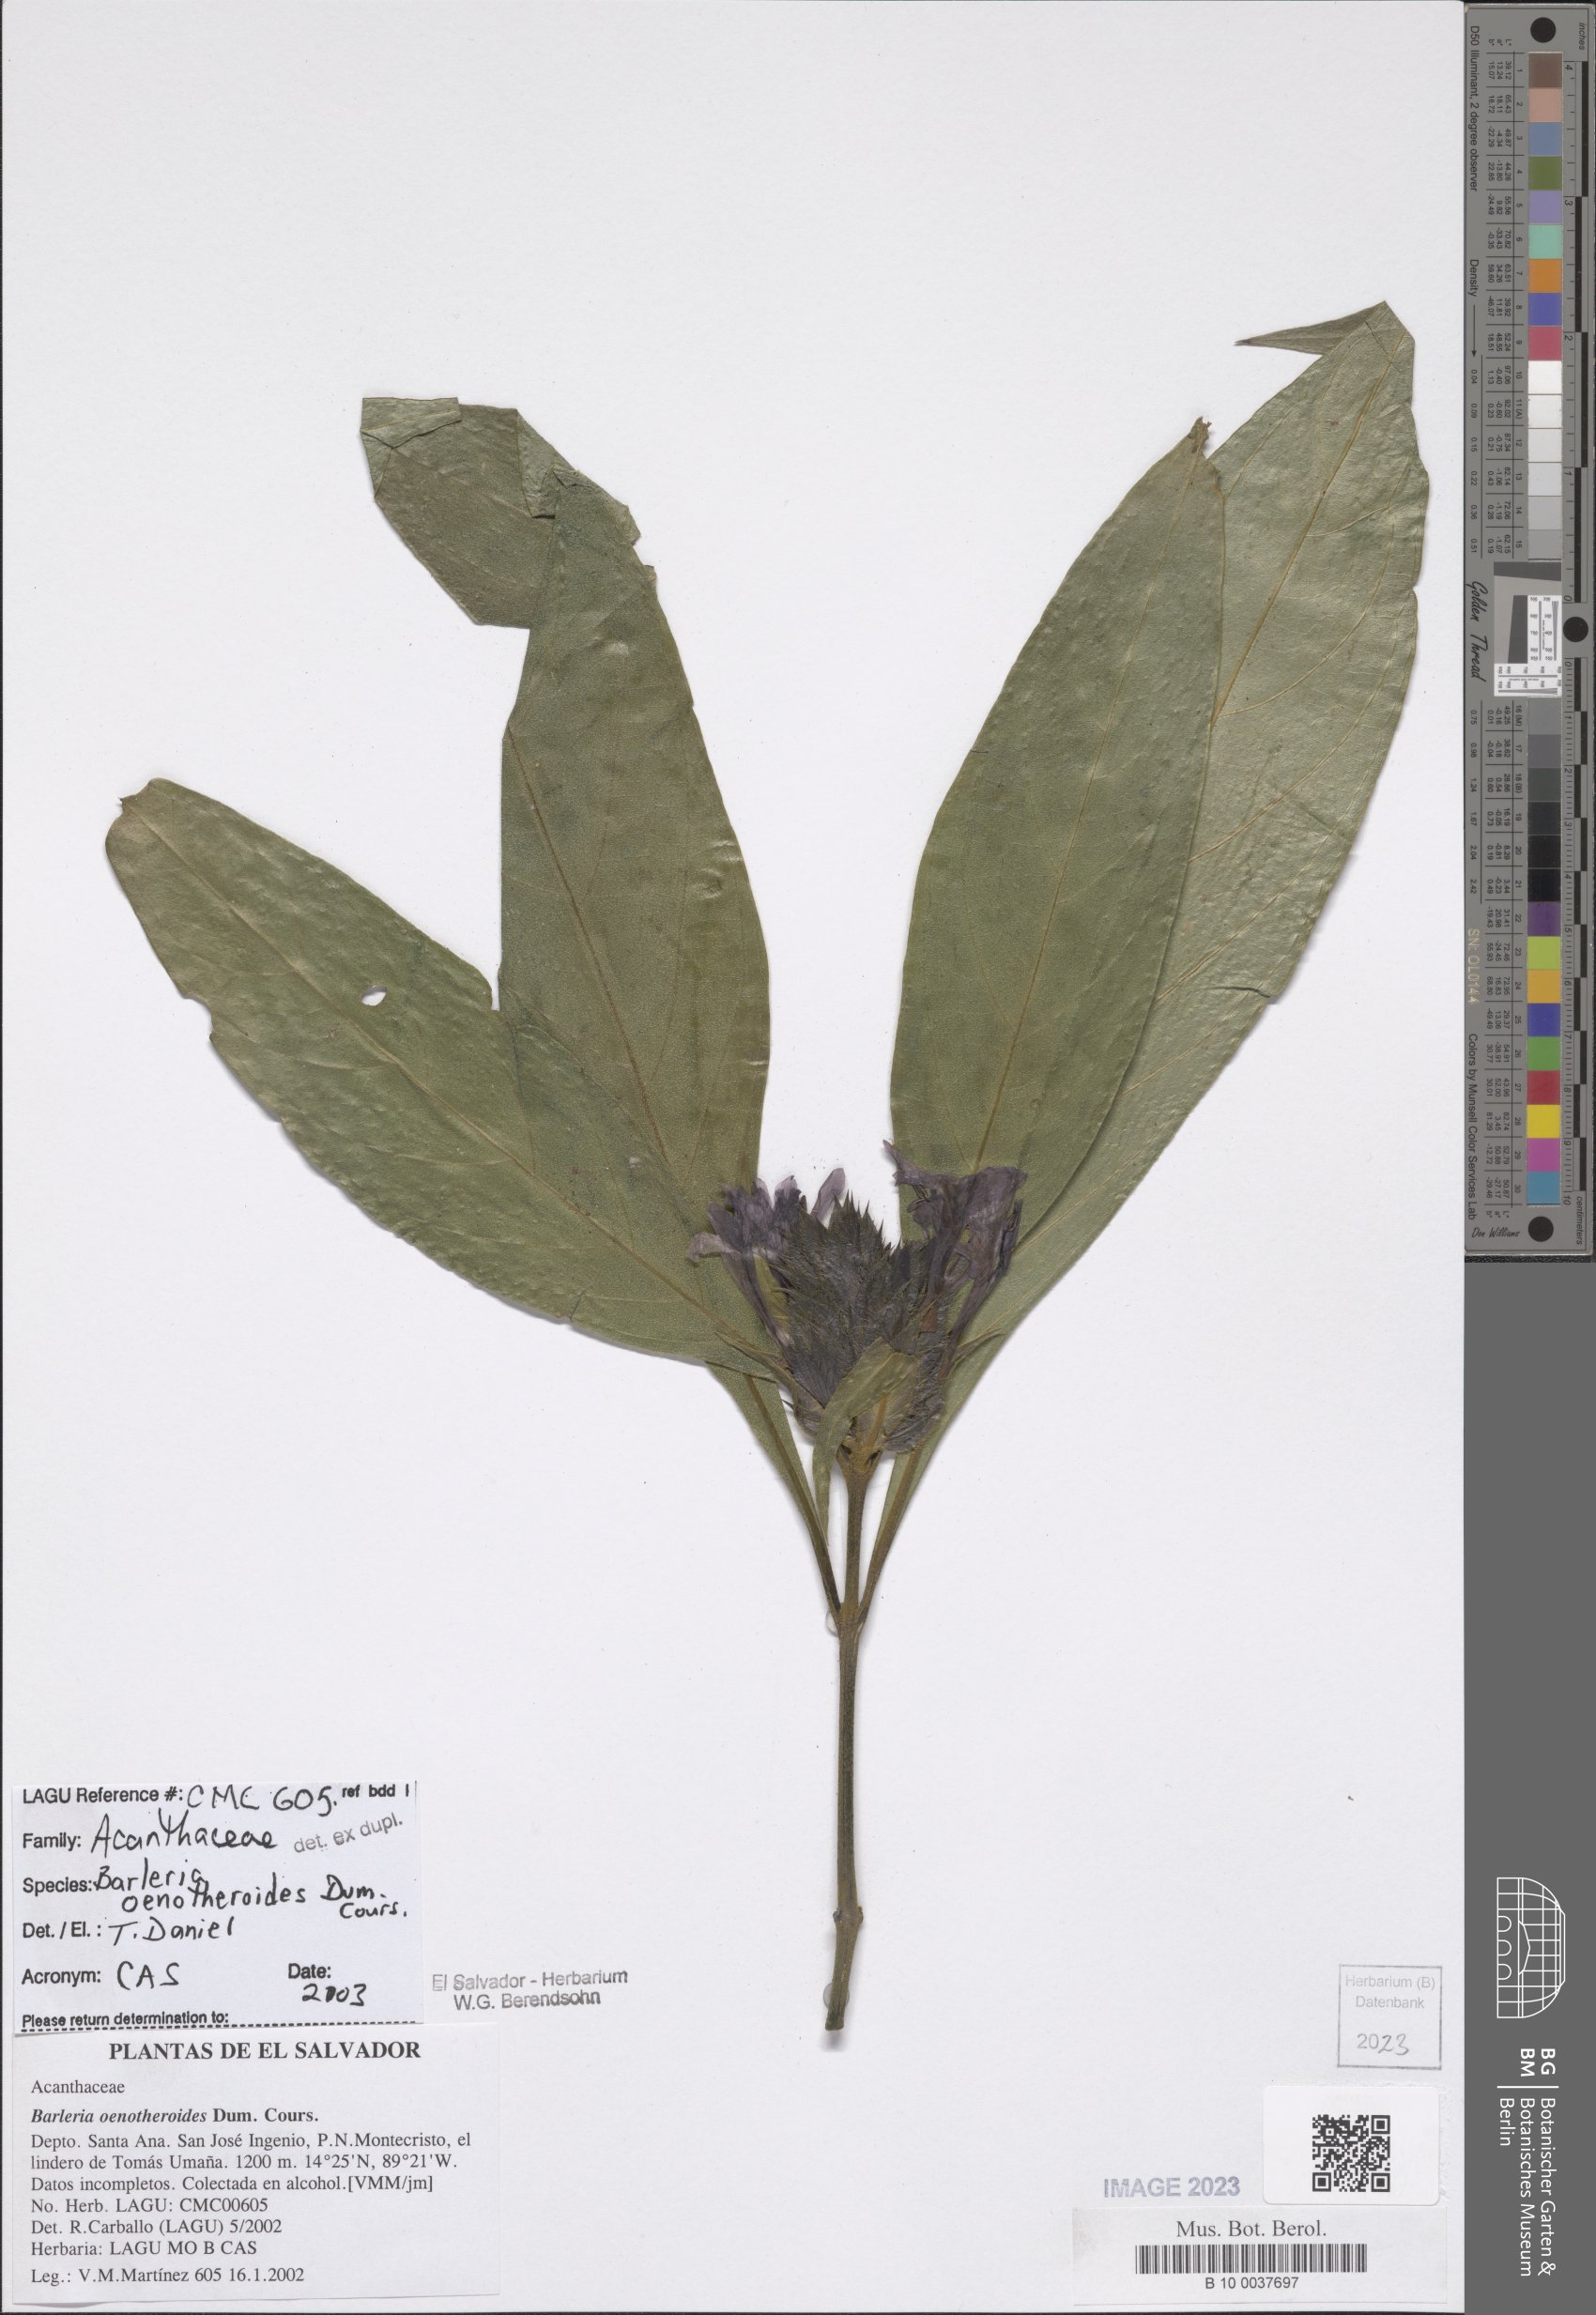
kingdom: Plantae
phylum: Tracheophyta
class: Magnoliopsida
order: Lamiales
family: Acanthaceae
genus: Barleria
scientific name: Barleria oenotheroides
